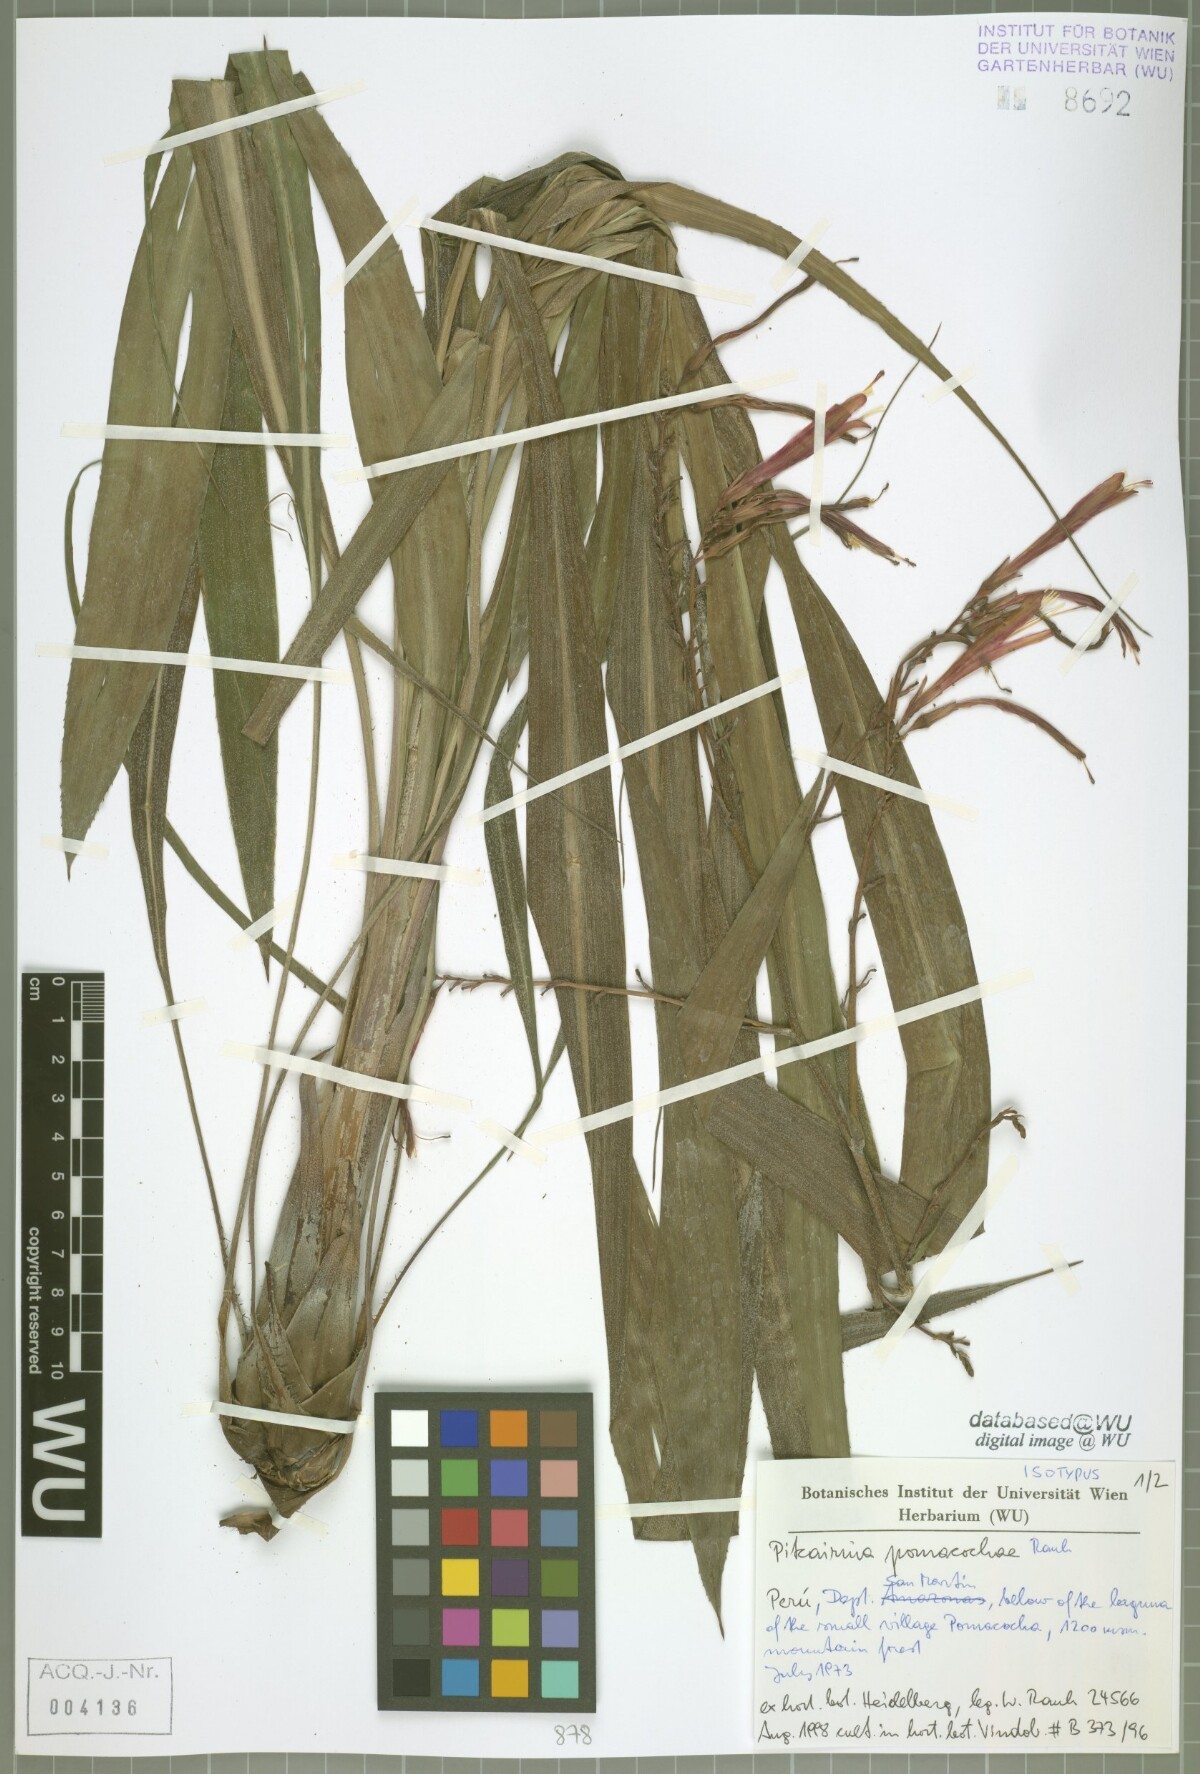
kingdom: Plantae
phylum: Tracheophyta
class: Liliopsida
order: Poales
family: Bromeliaceae
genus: Pitcairnia
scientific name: Pitcairnia pomacochae
